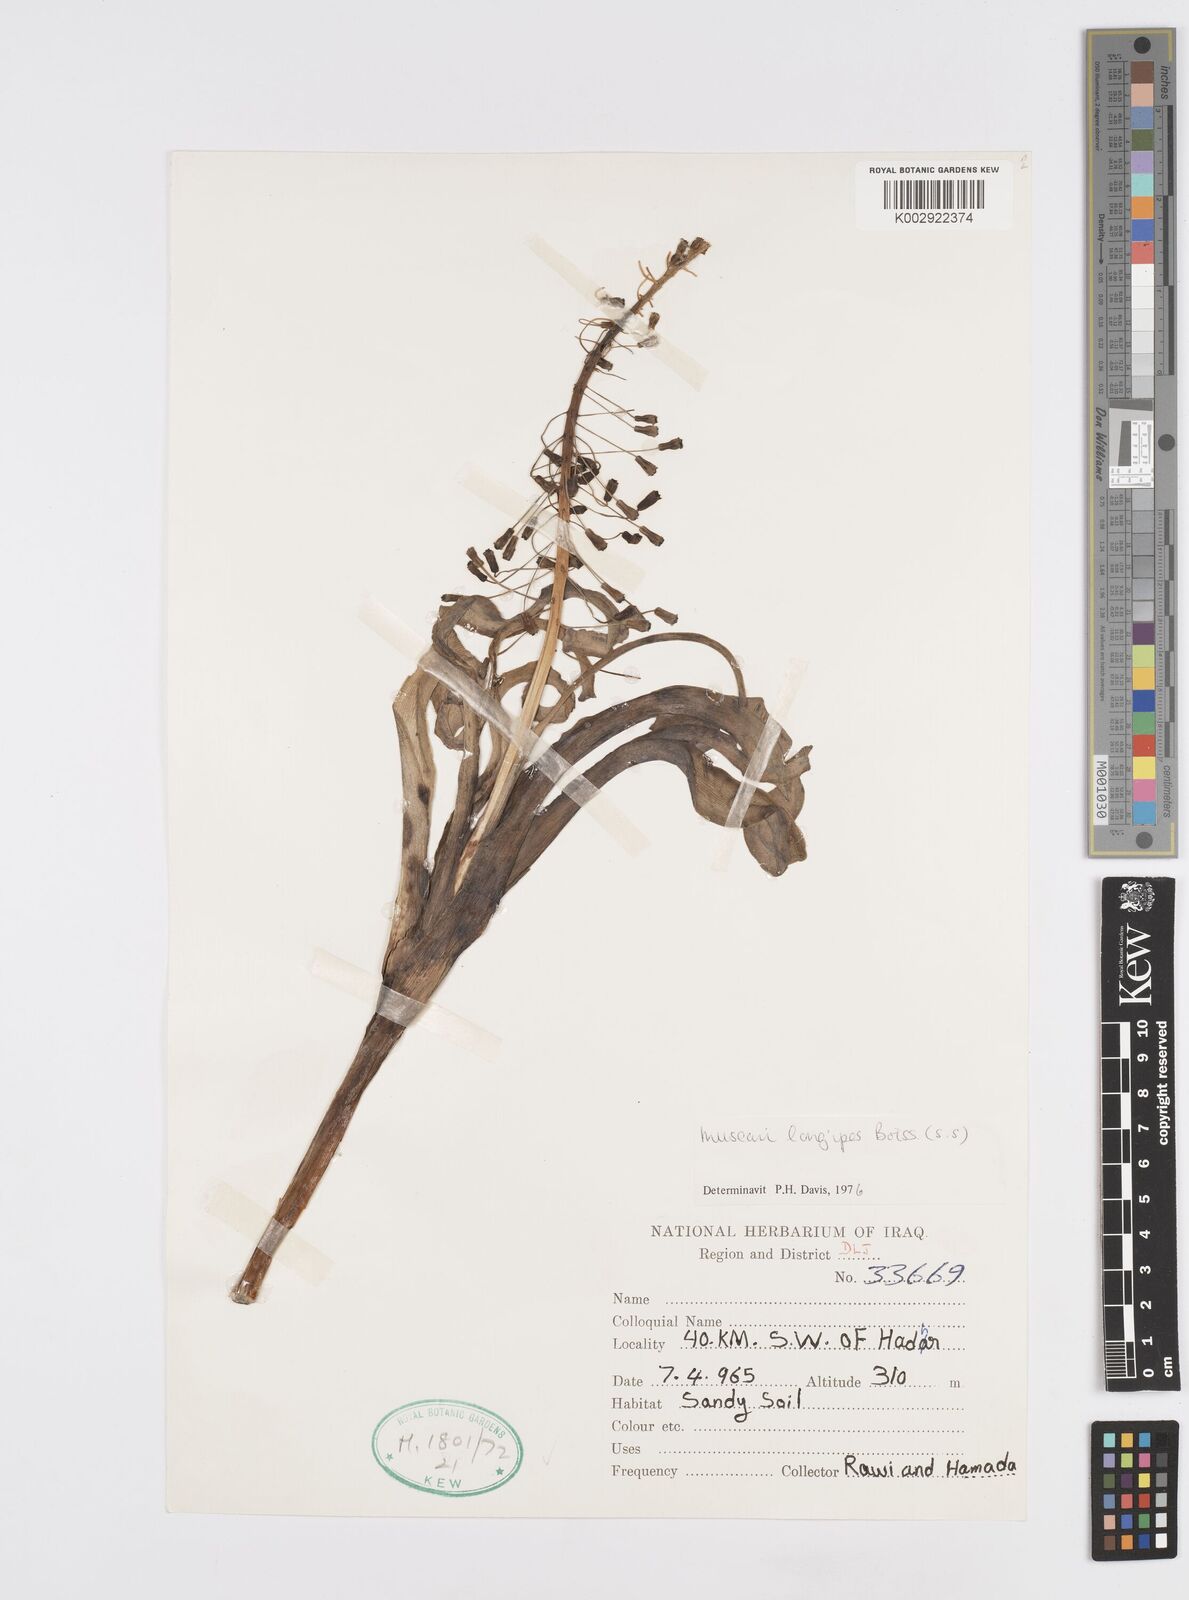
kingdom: Plantae
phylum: Tracheophyta
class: Liliopsida
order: Asparagales
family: Asparagaceae
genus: Muscari
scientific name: Muscari longipes
